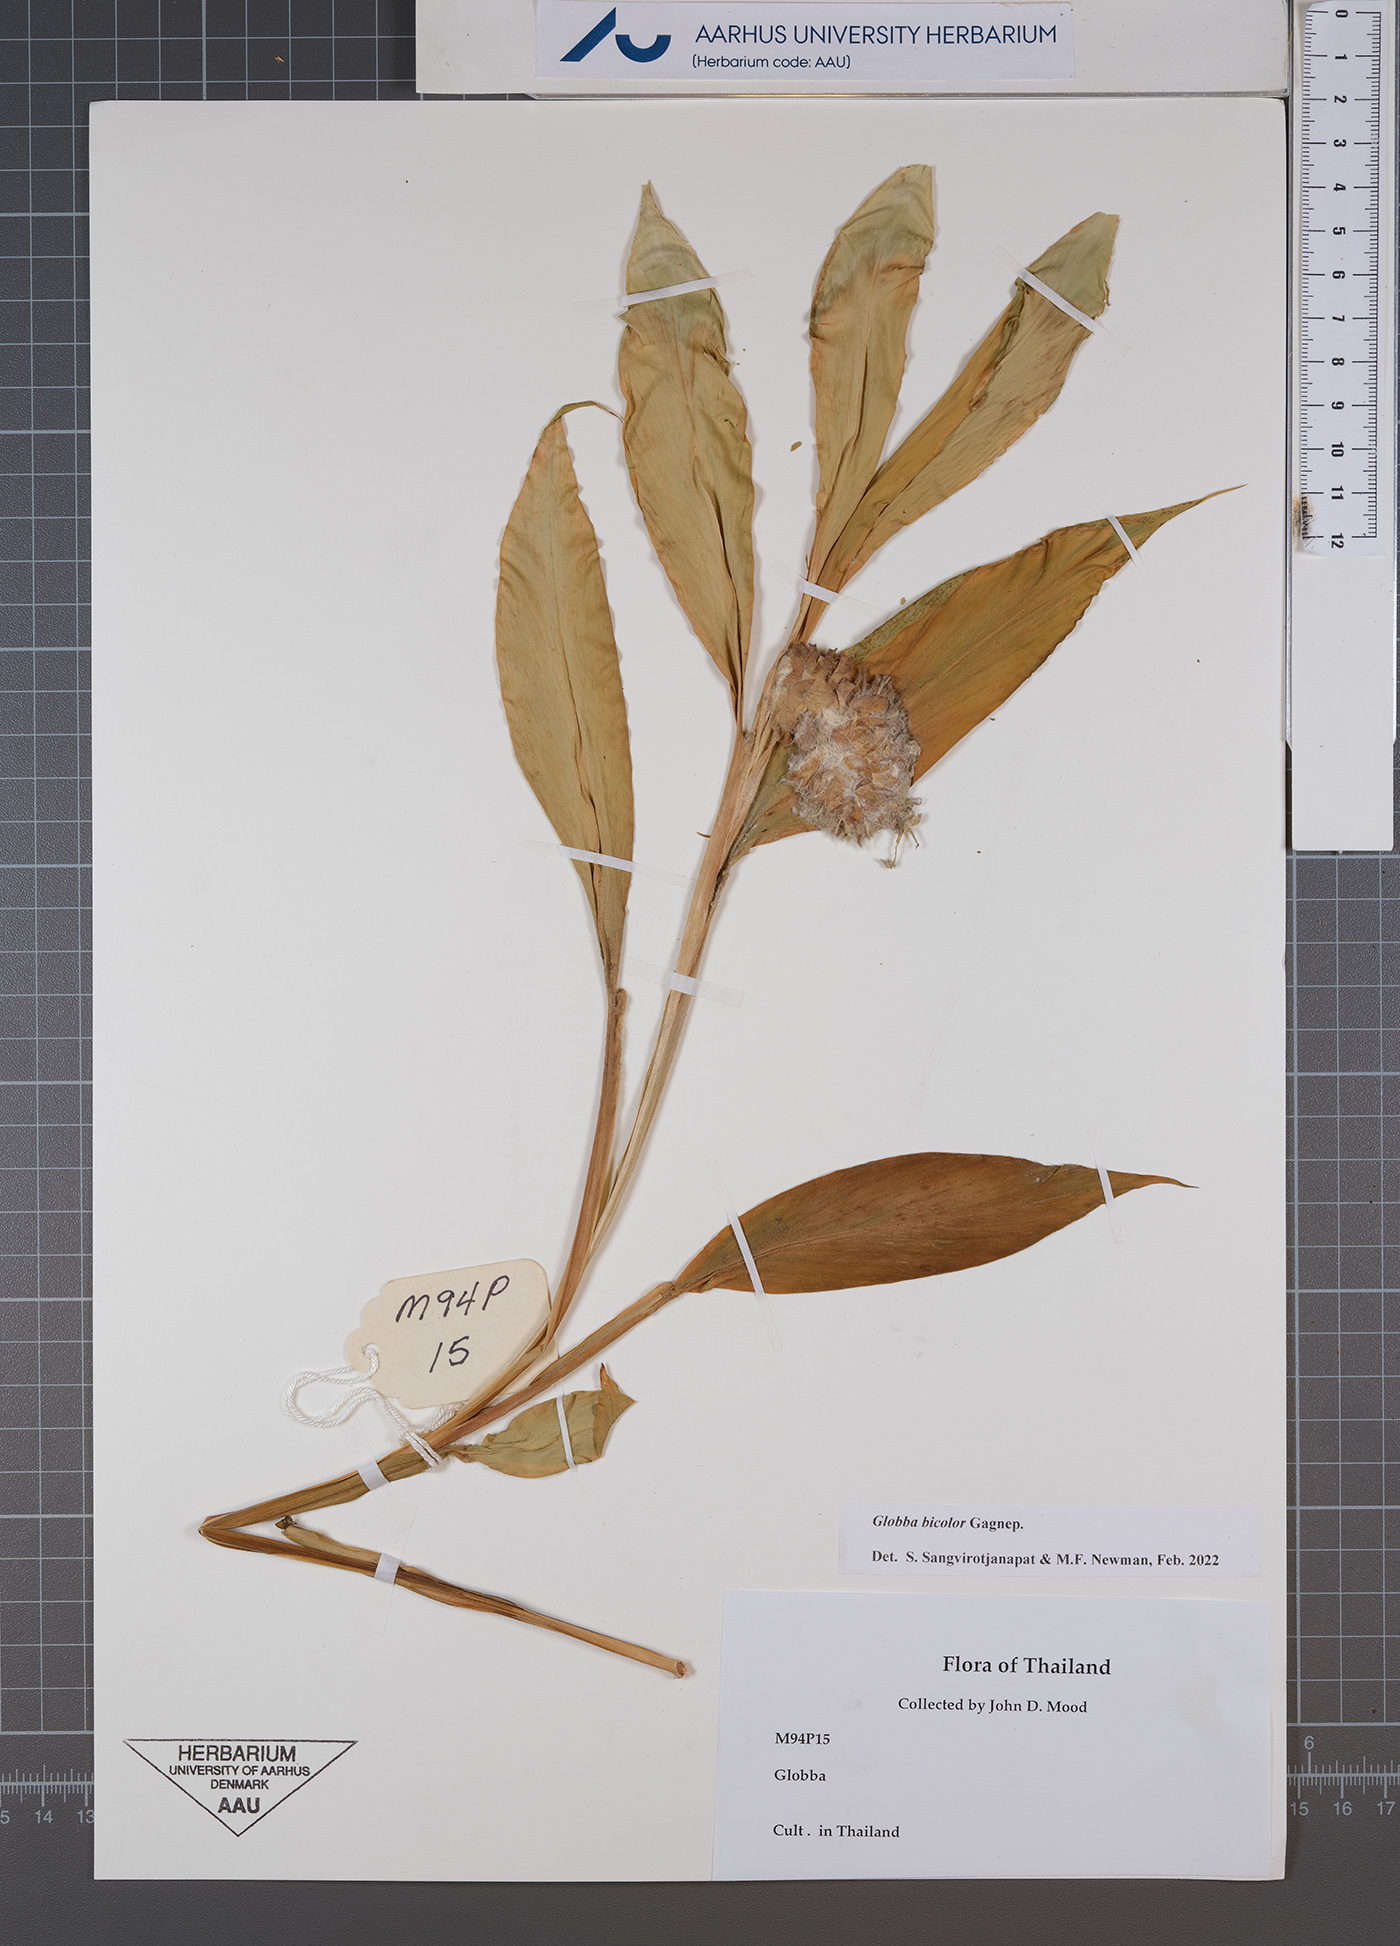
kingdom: Plantae
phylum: Tracheophyta
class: Liliopsida
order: Zingiberales
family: Zingiberaceae
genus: Globba
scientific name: Globba bicolor
